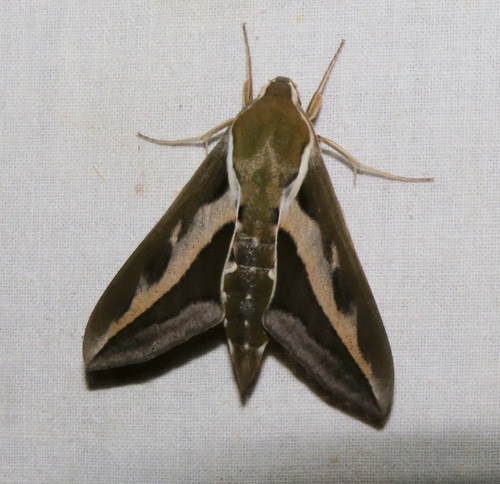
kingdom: Animalia
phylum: Arthropoda
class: Insecta
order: Lepidoptera
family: Sphingidae
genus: Hyles
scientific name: Hyles gallii
